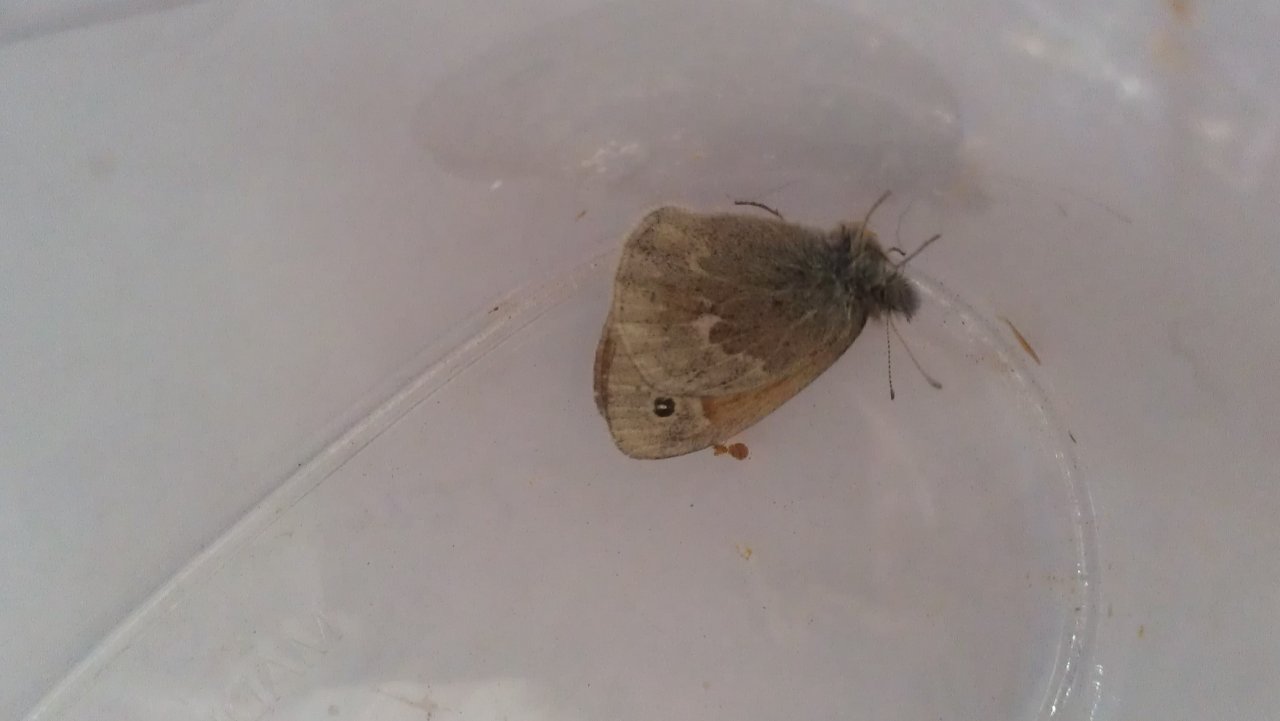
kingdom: Animalia
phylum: Arthropoda
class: Insecta
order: Lepidoptera
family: Nymphalidae
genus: Coenonympha
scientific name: Coenonympha tullia
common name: Large Heath
